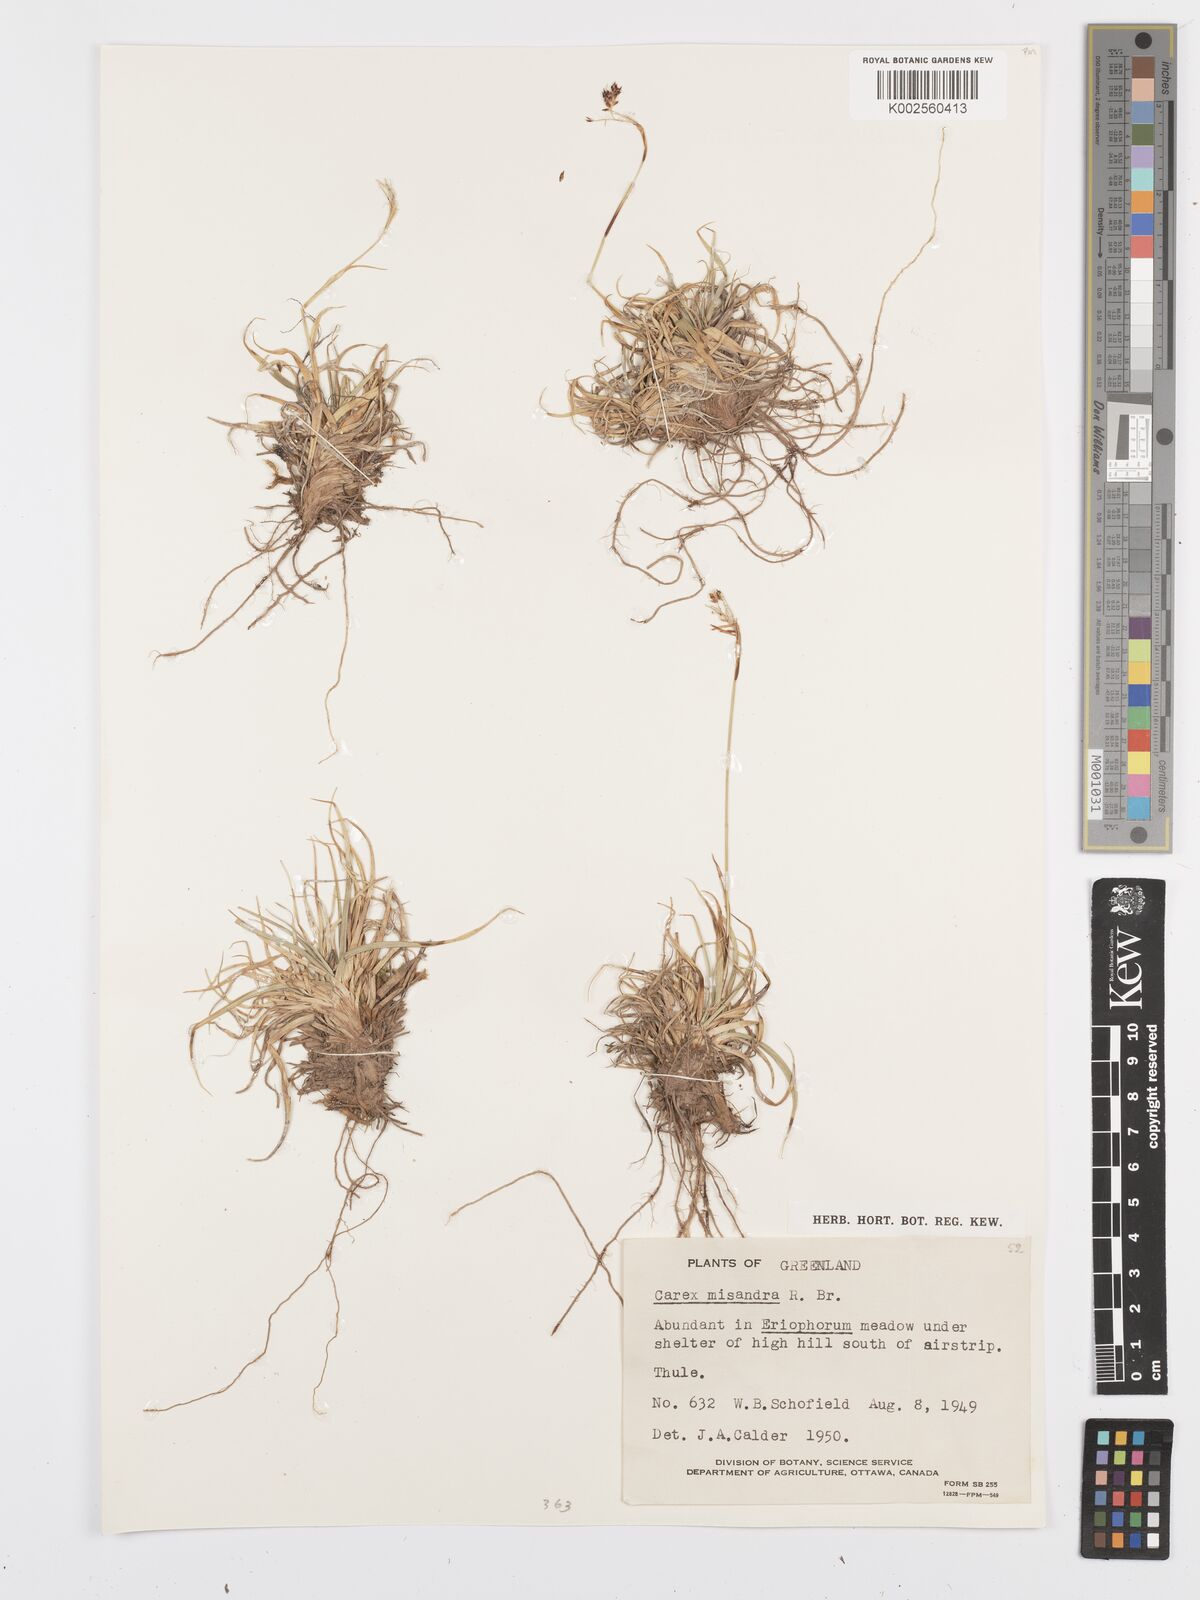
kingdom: Plantae
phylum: Tracheophyta
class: Liliopsida
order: Poales
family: Cyperaceae
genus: Carex
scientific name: Carex fuliginosa
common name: Few-flowered sedge
